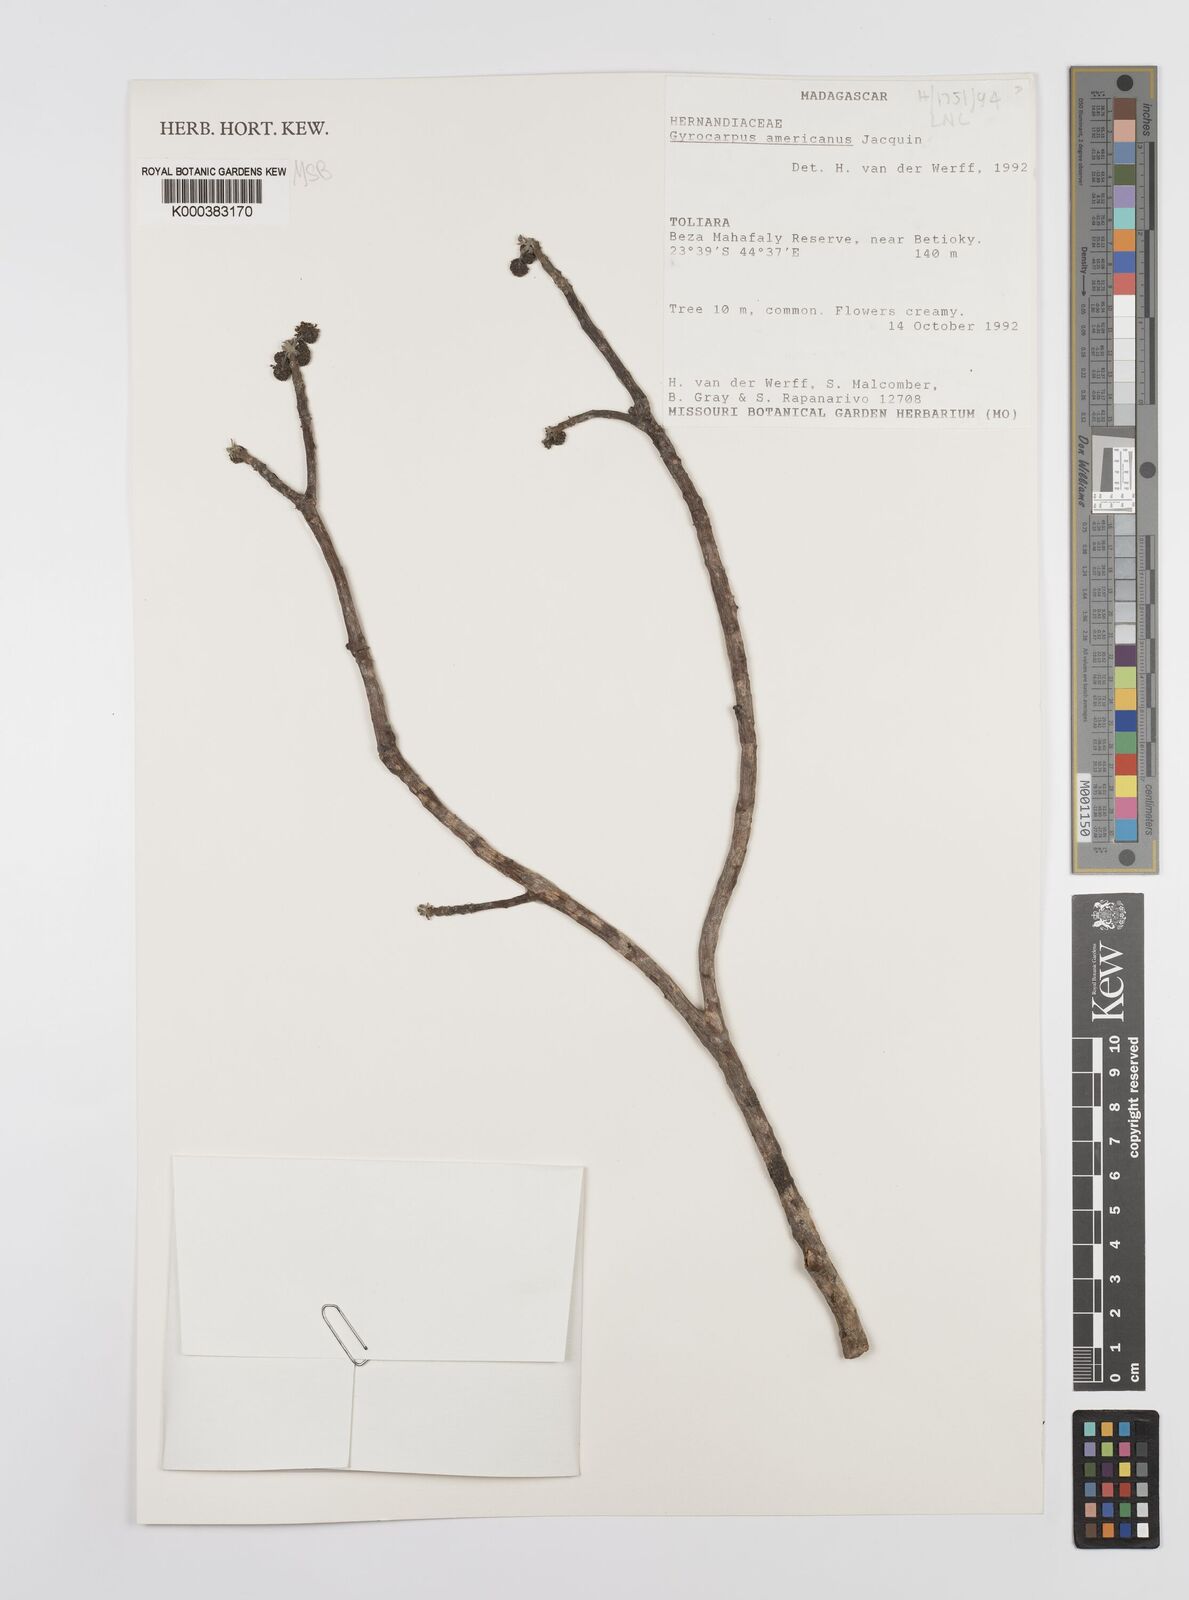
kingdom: Plantae
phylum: Tracheophyta
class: Magnoliopsida
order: Laurales
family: Hernandiaceae
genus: Gyrocarpus
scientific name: Gyrocarpus americanus
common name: Gyro damson
